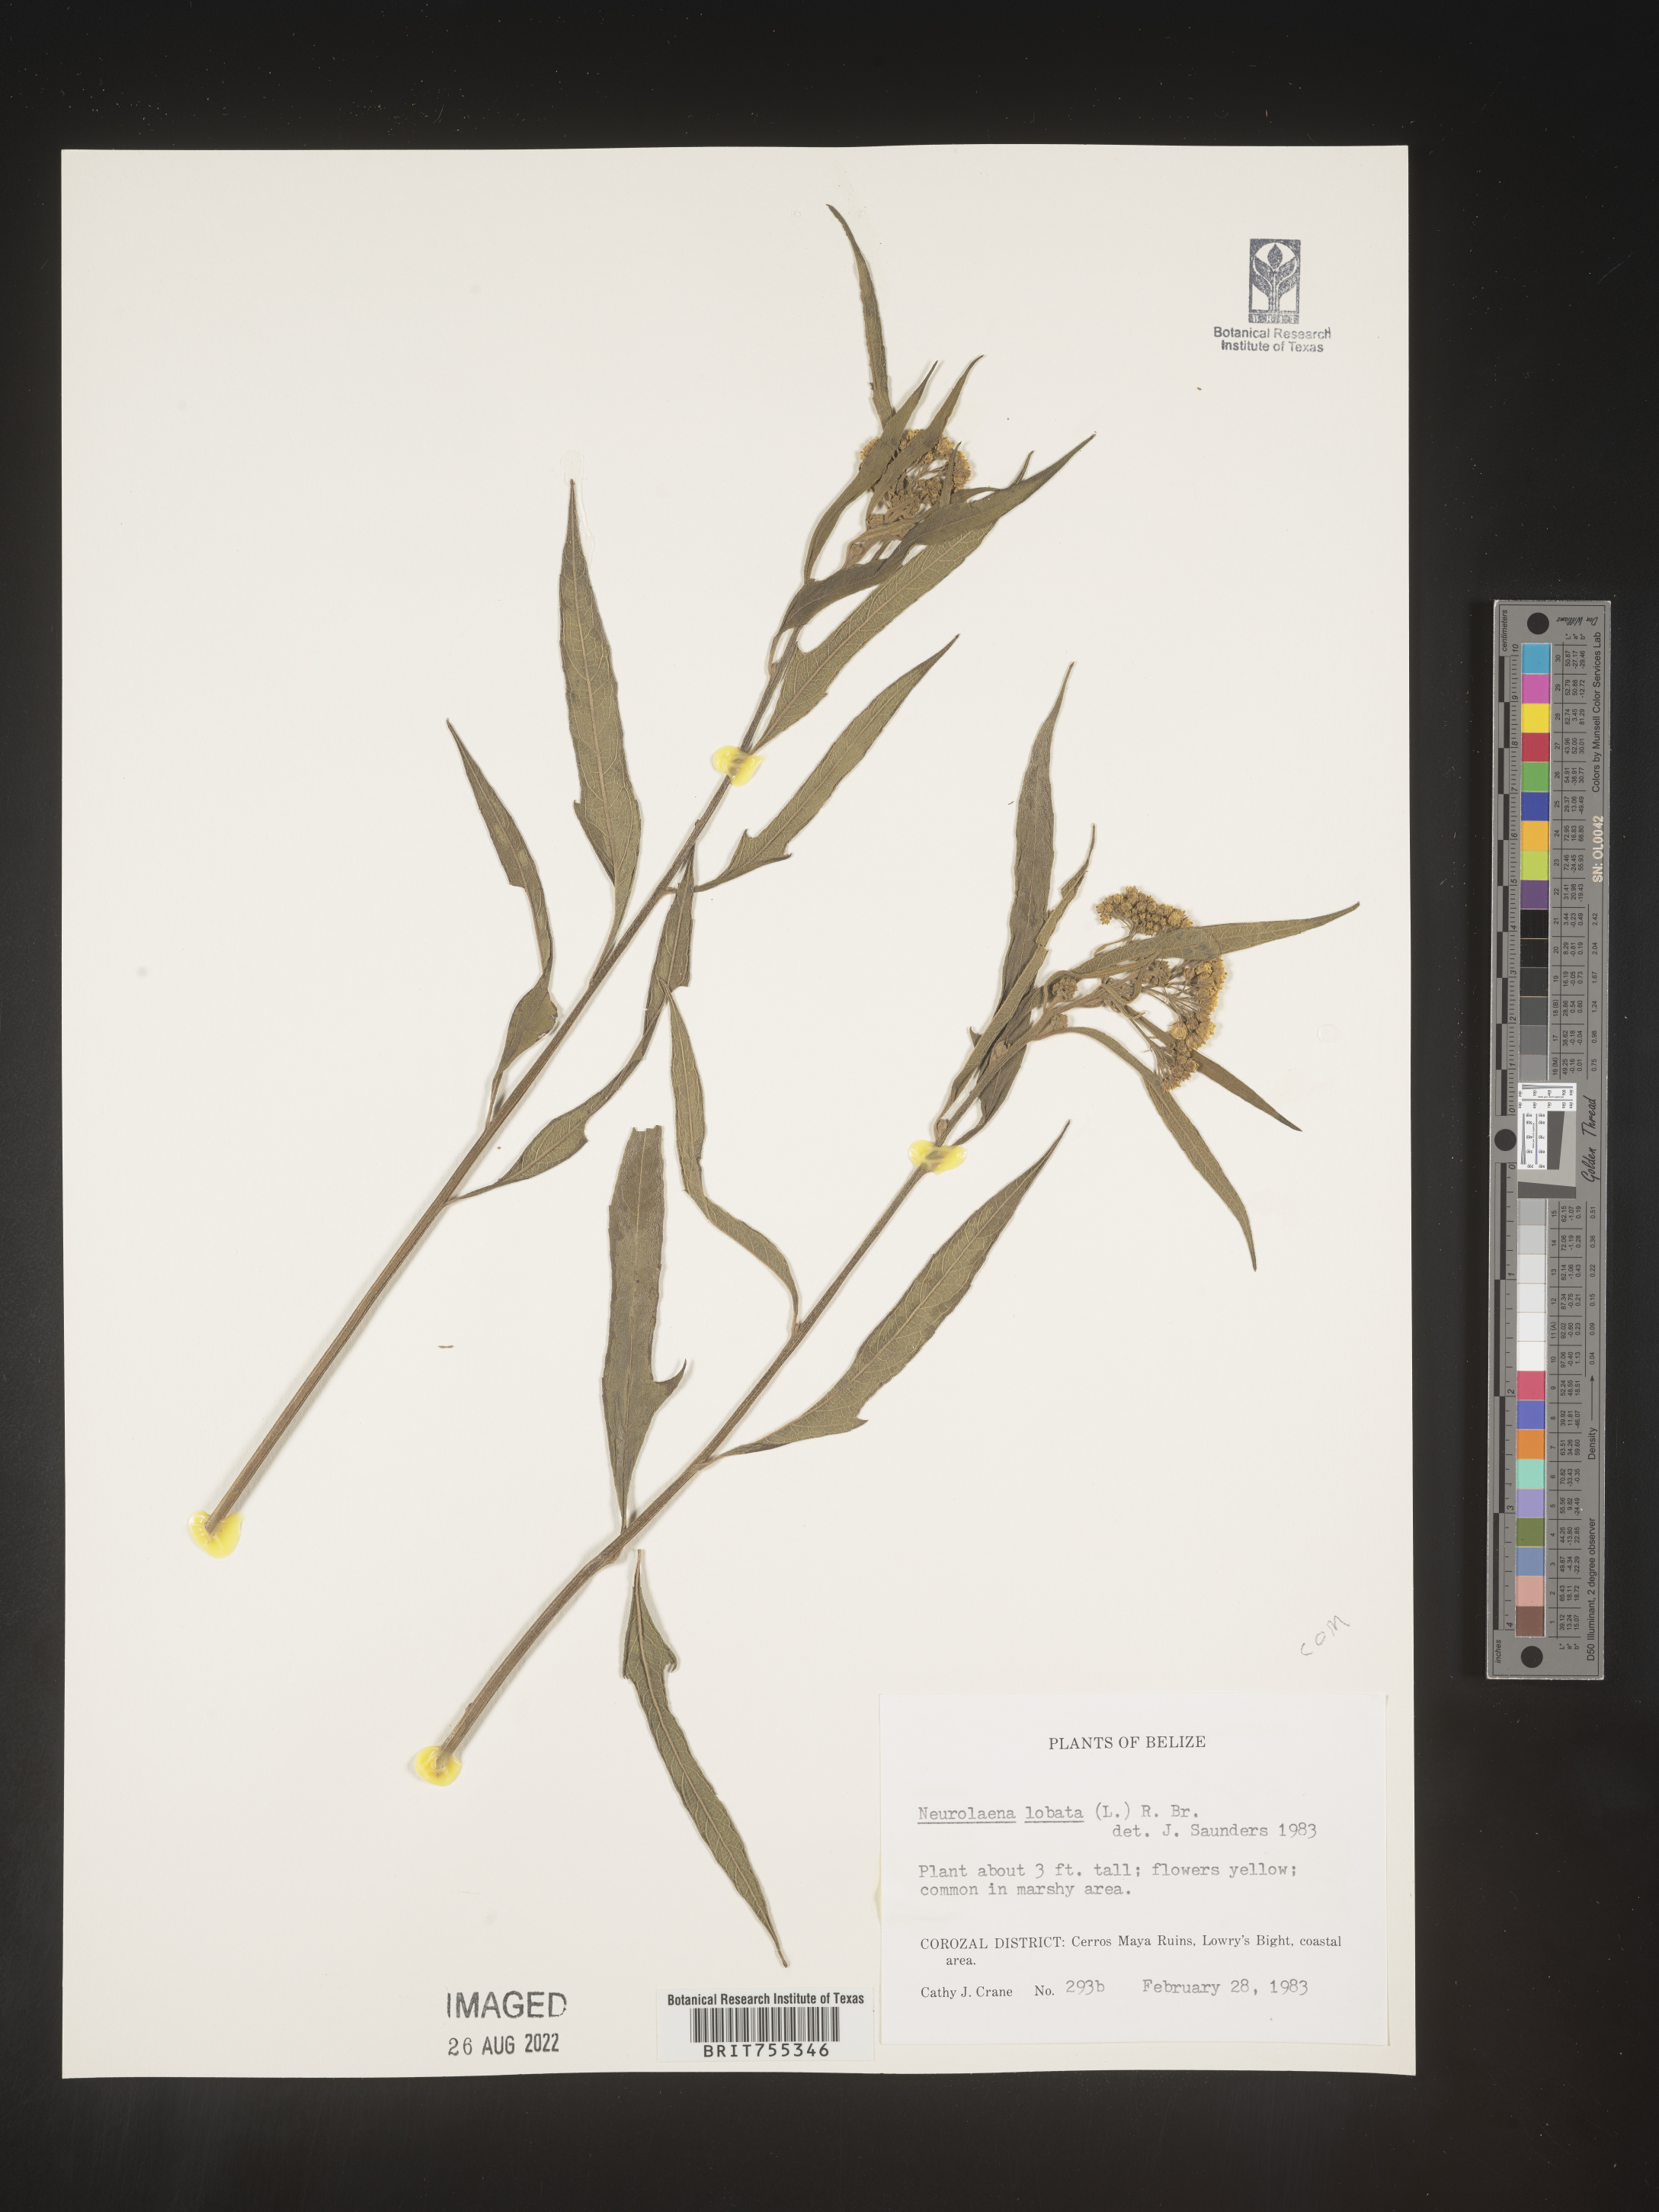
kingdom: Plantae
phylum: Tracheophyta
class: Magnoliopsida
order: Asterales
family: Asteraceae
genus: Neurolaena
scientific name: Neurolaena
